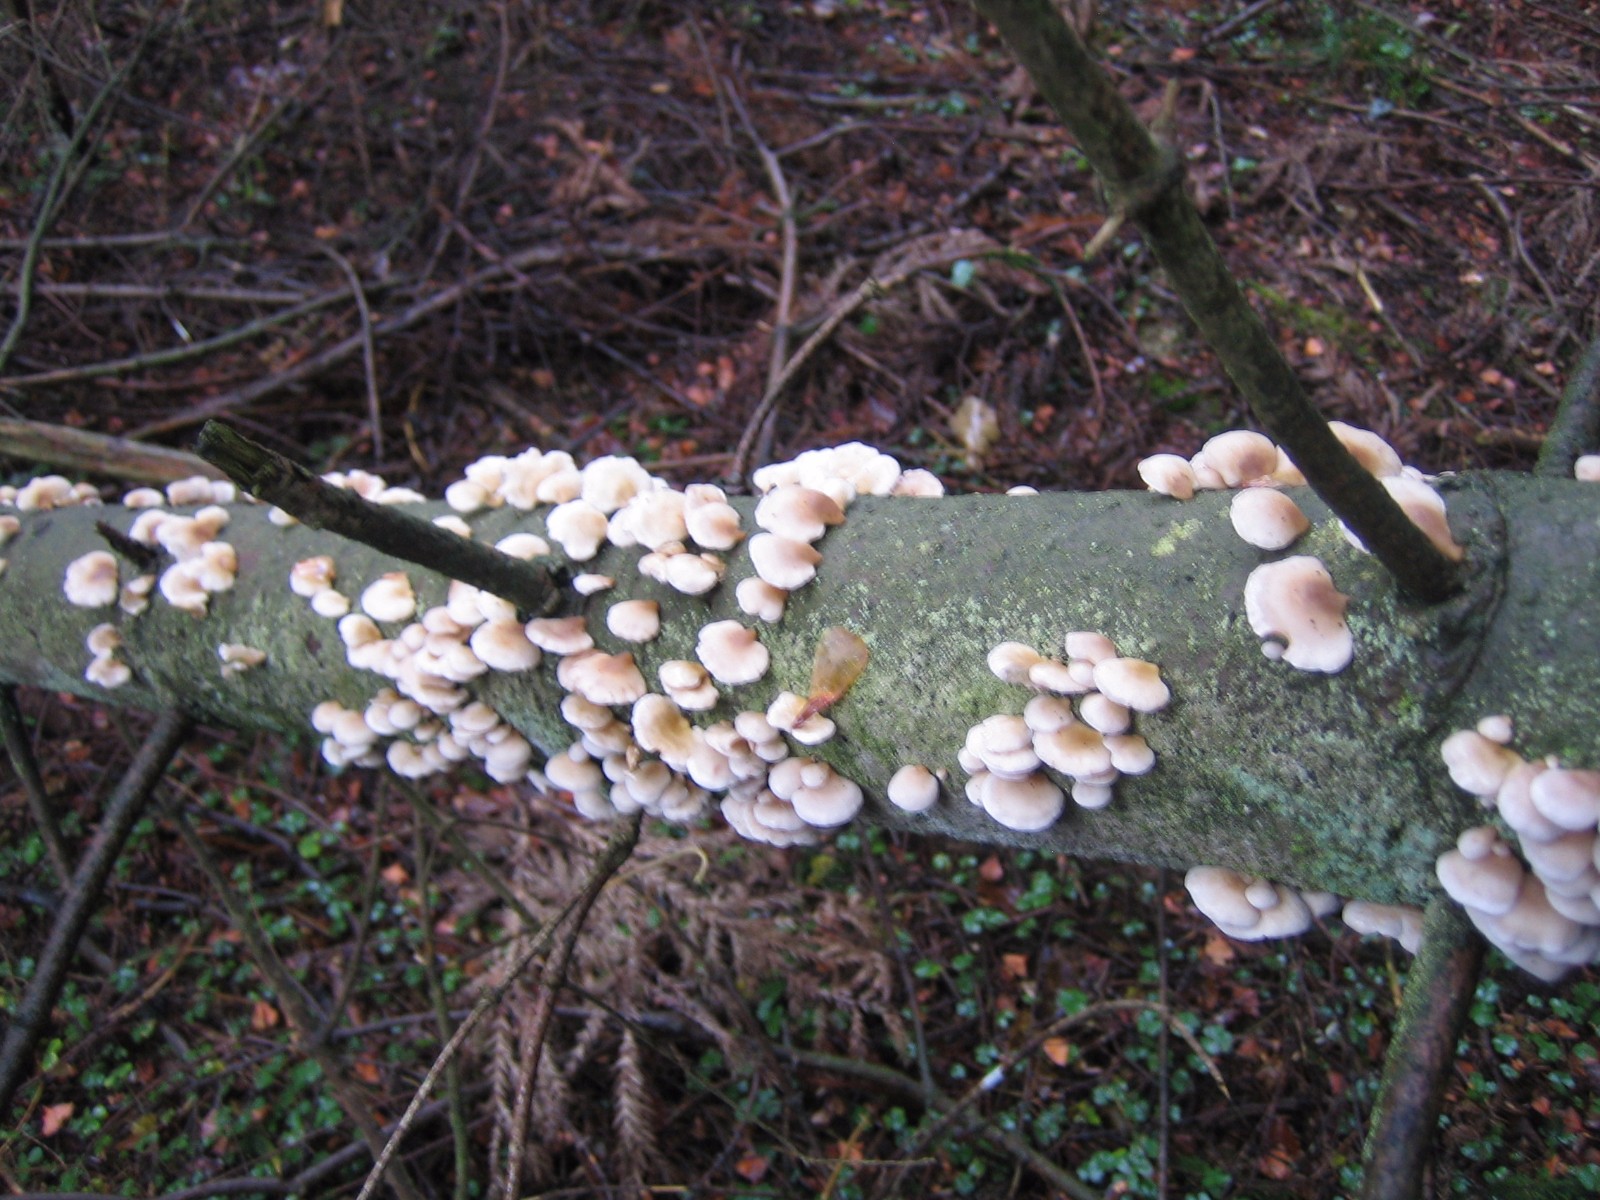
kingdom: Fungi
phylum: Basidiomycota
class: Agaricomycetes
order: Agaricales
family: Mycenaceae
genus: Panellus
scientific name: Panellus mitis
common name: mild epaulethat
